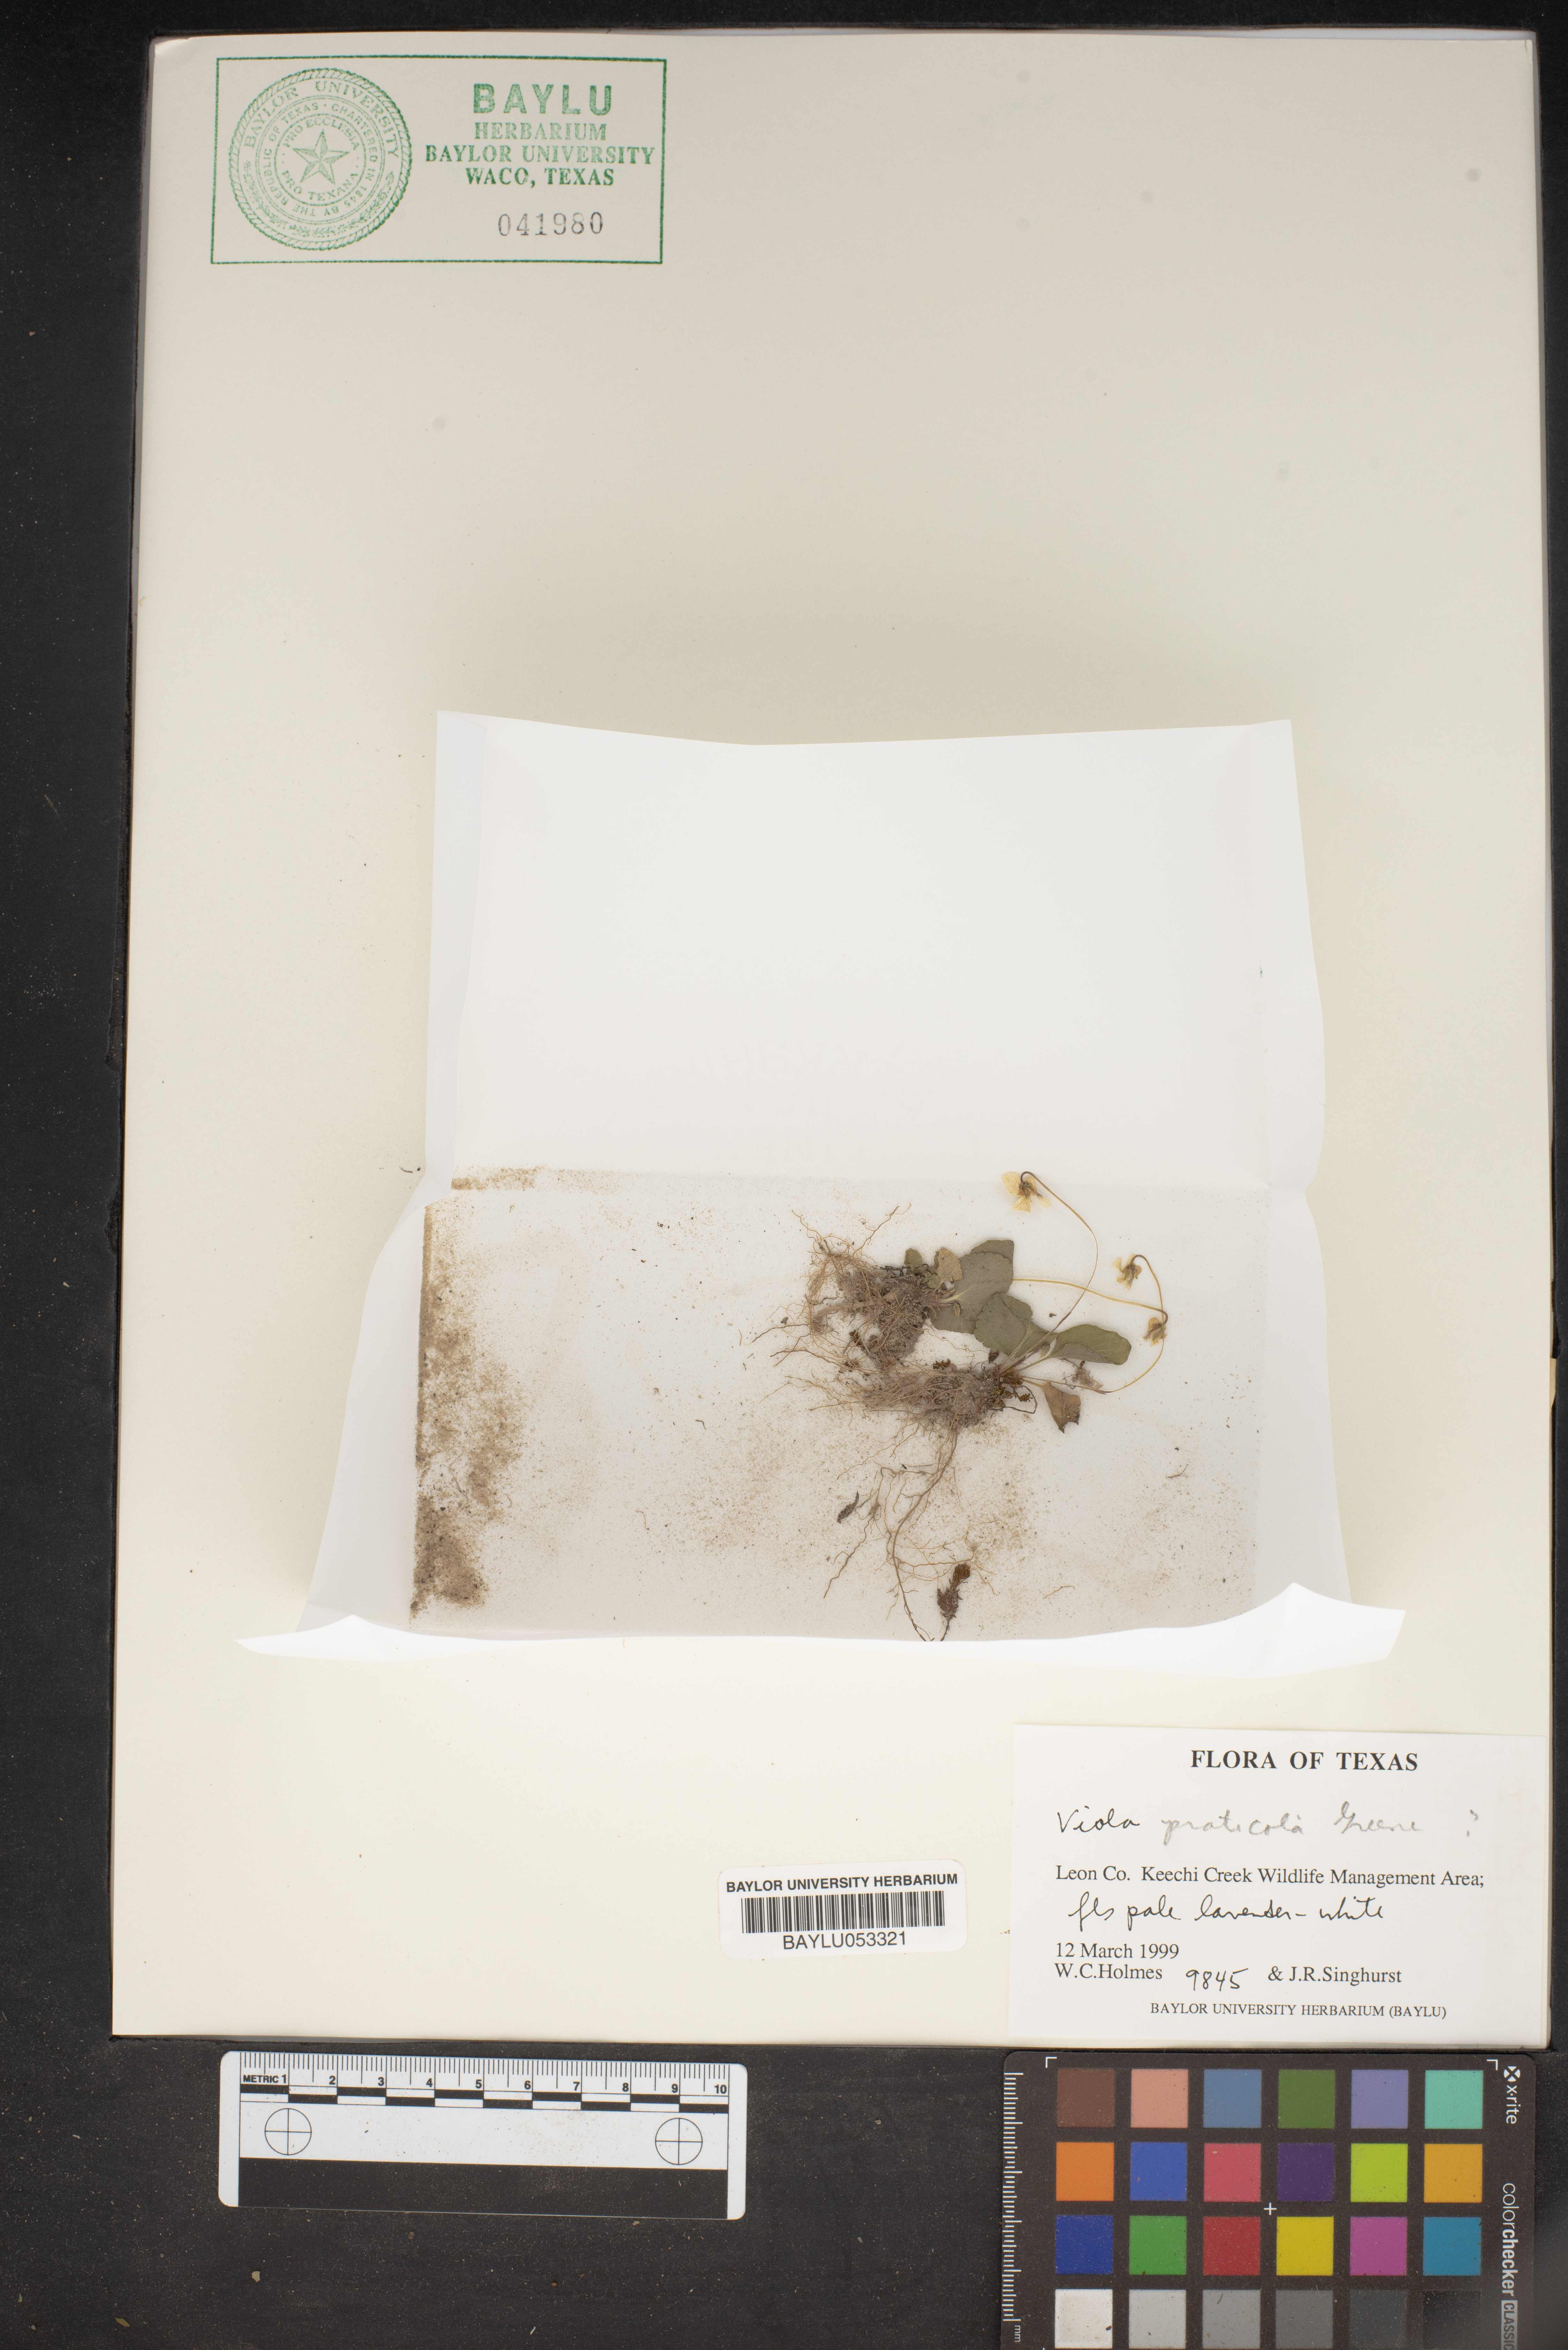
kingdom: Plantae
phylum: Tracheophyta
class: Magnoliopsida
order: Malpighiales
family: Violaceae
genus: Viola
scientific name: Viola pratincola
